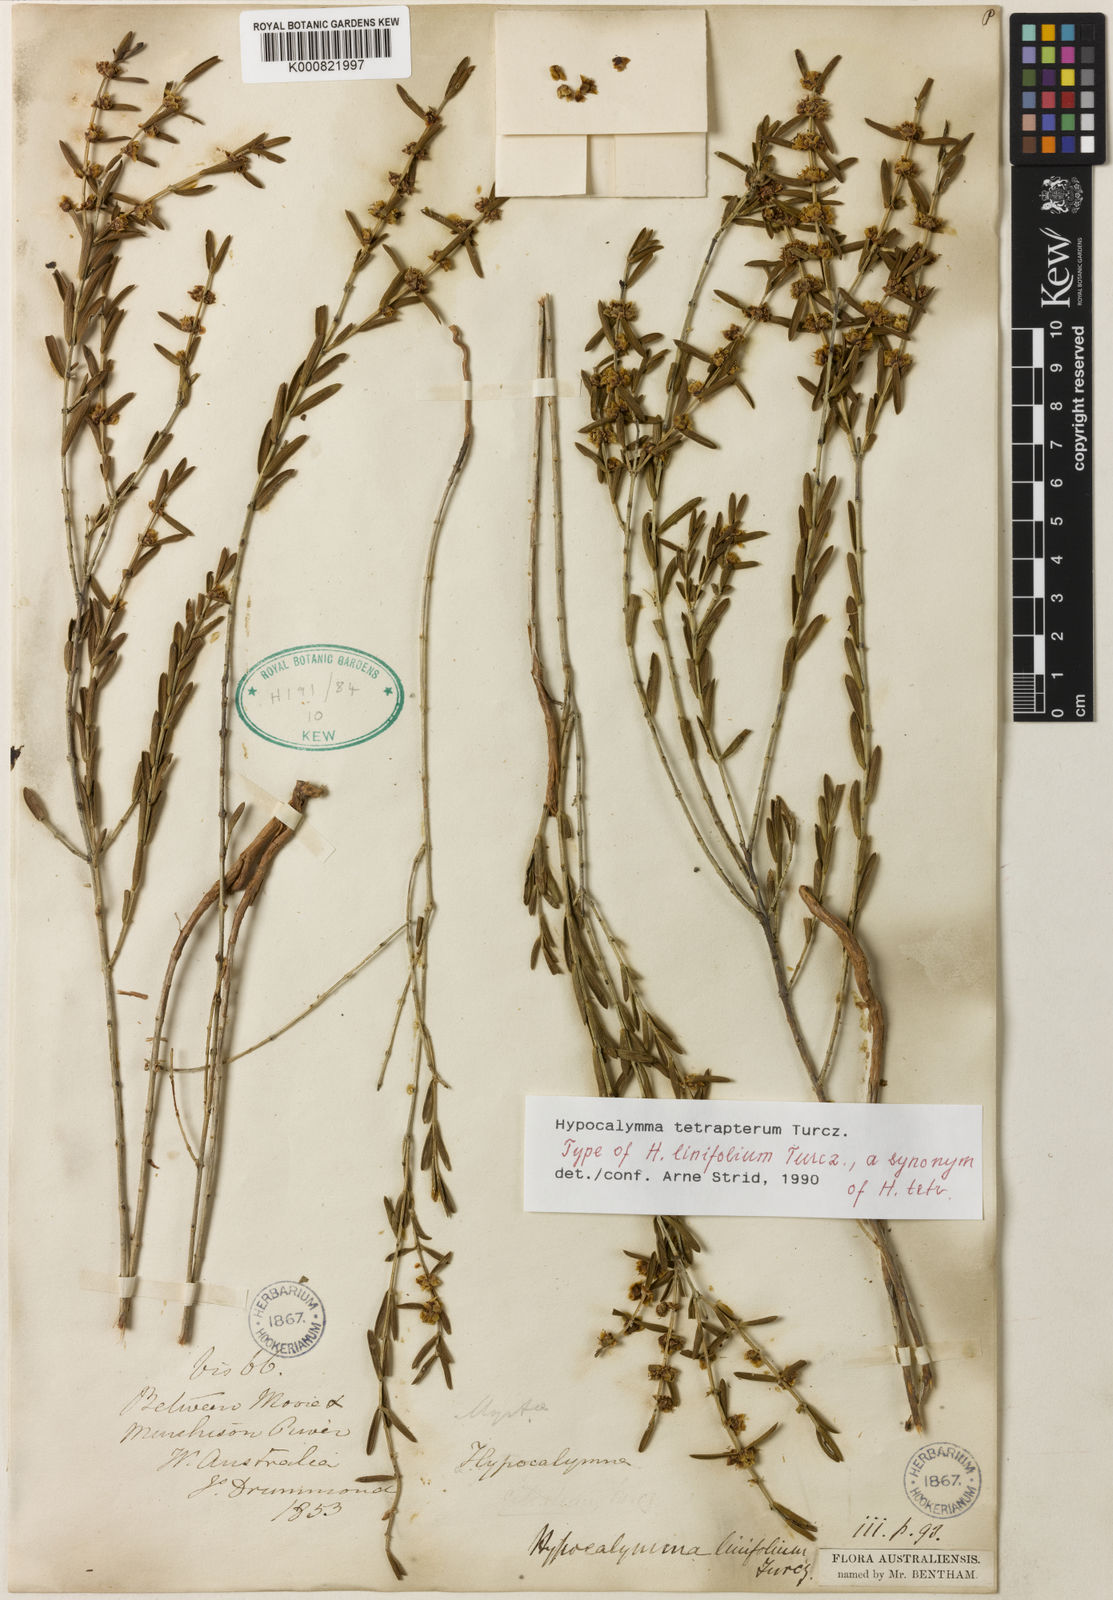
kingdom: Plantae
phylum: Tracheophyta
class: Magnoliopsida
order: Myrtales
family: Myrtaceae
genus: Hypocalymma
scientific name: Hypocalymma tetrapterum
